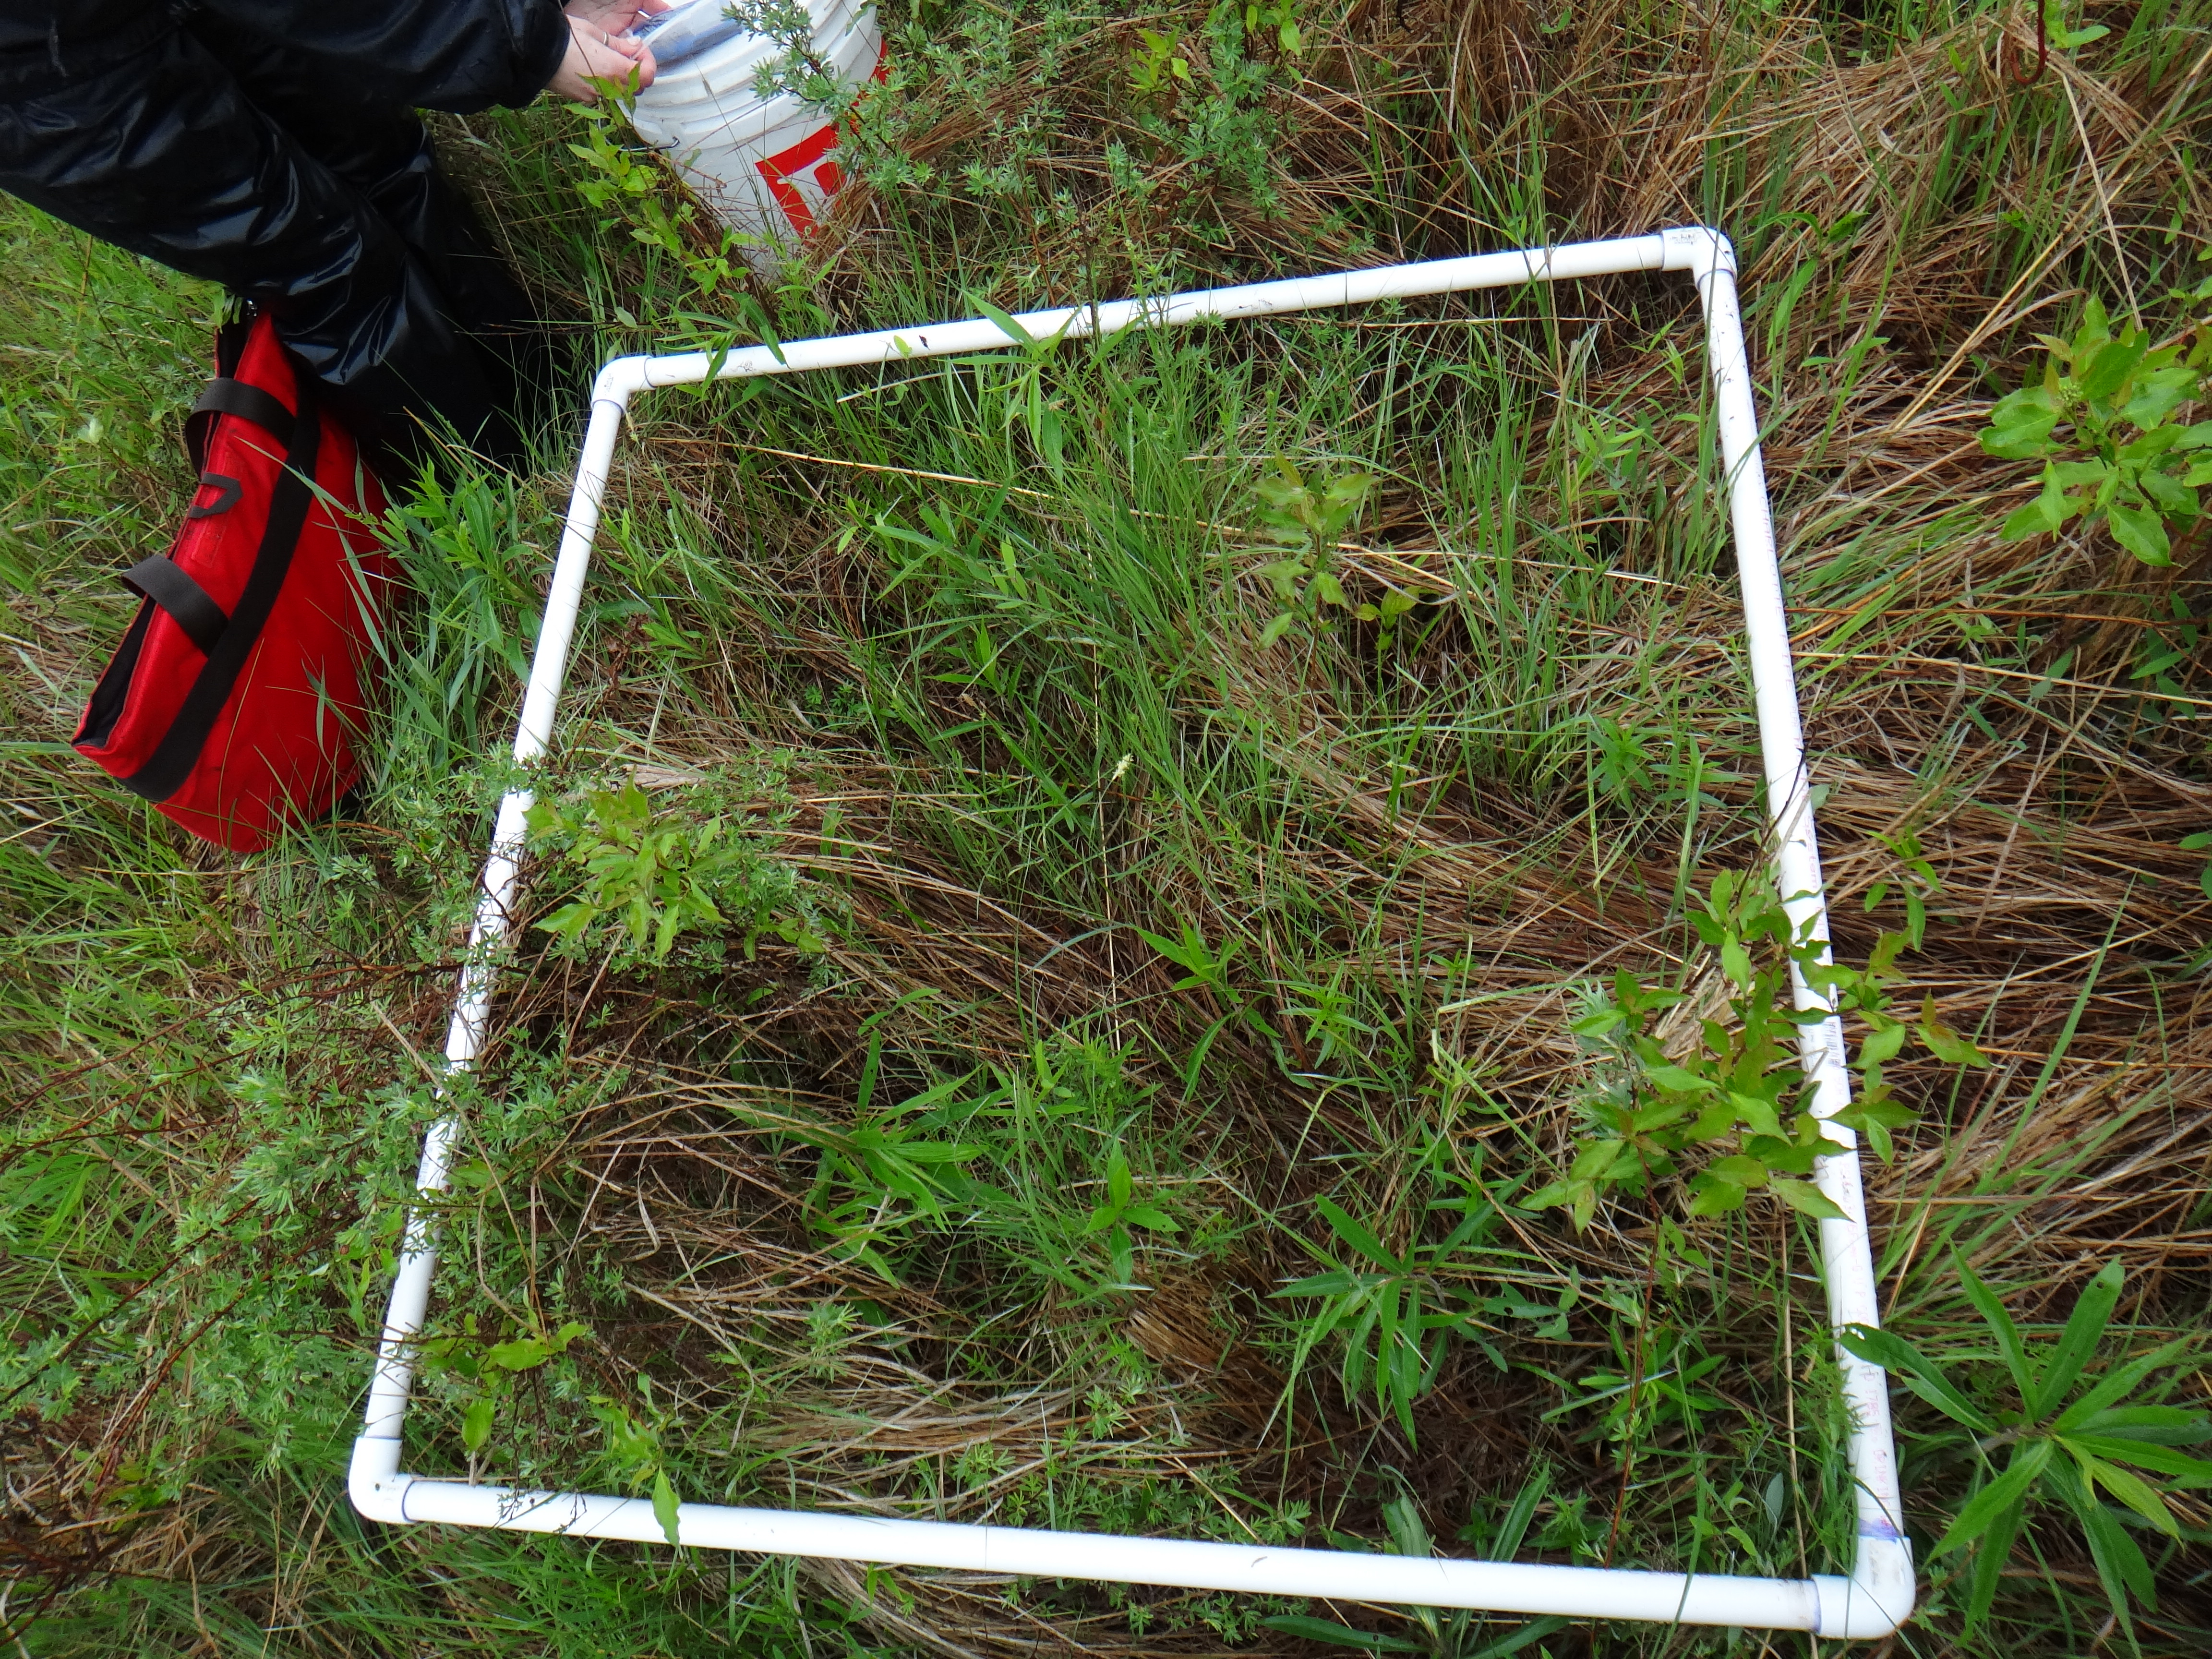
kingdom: Plantae
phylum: Tracheophyta
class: Liliopsida
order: Poales
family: Poaceae
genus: Poa
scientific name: Poa pratensis
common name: Kentucky bluegrass
